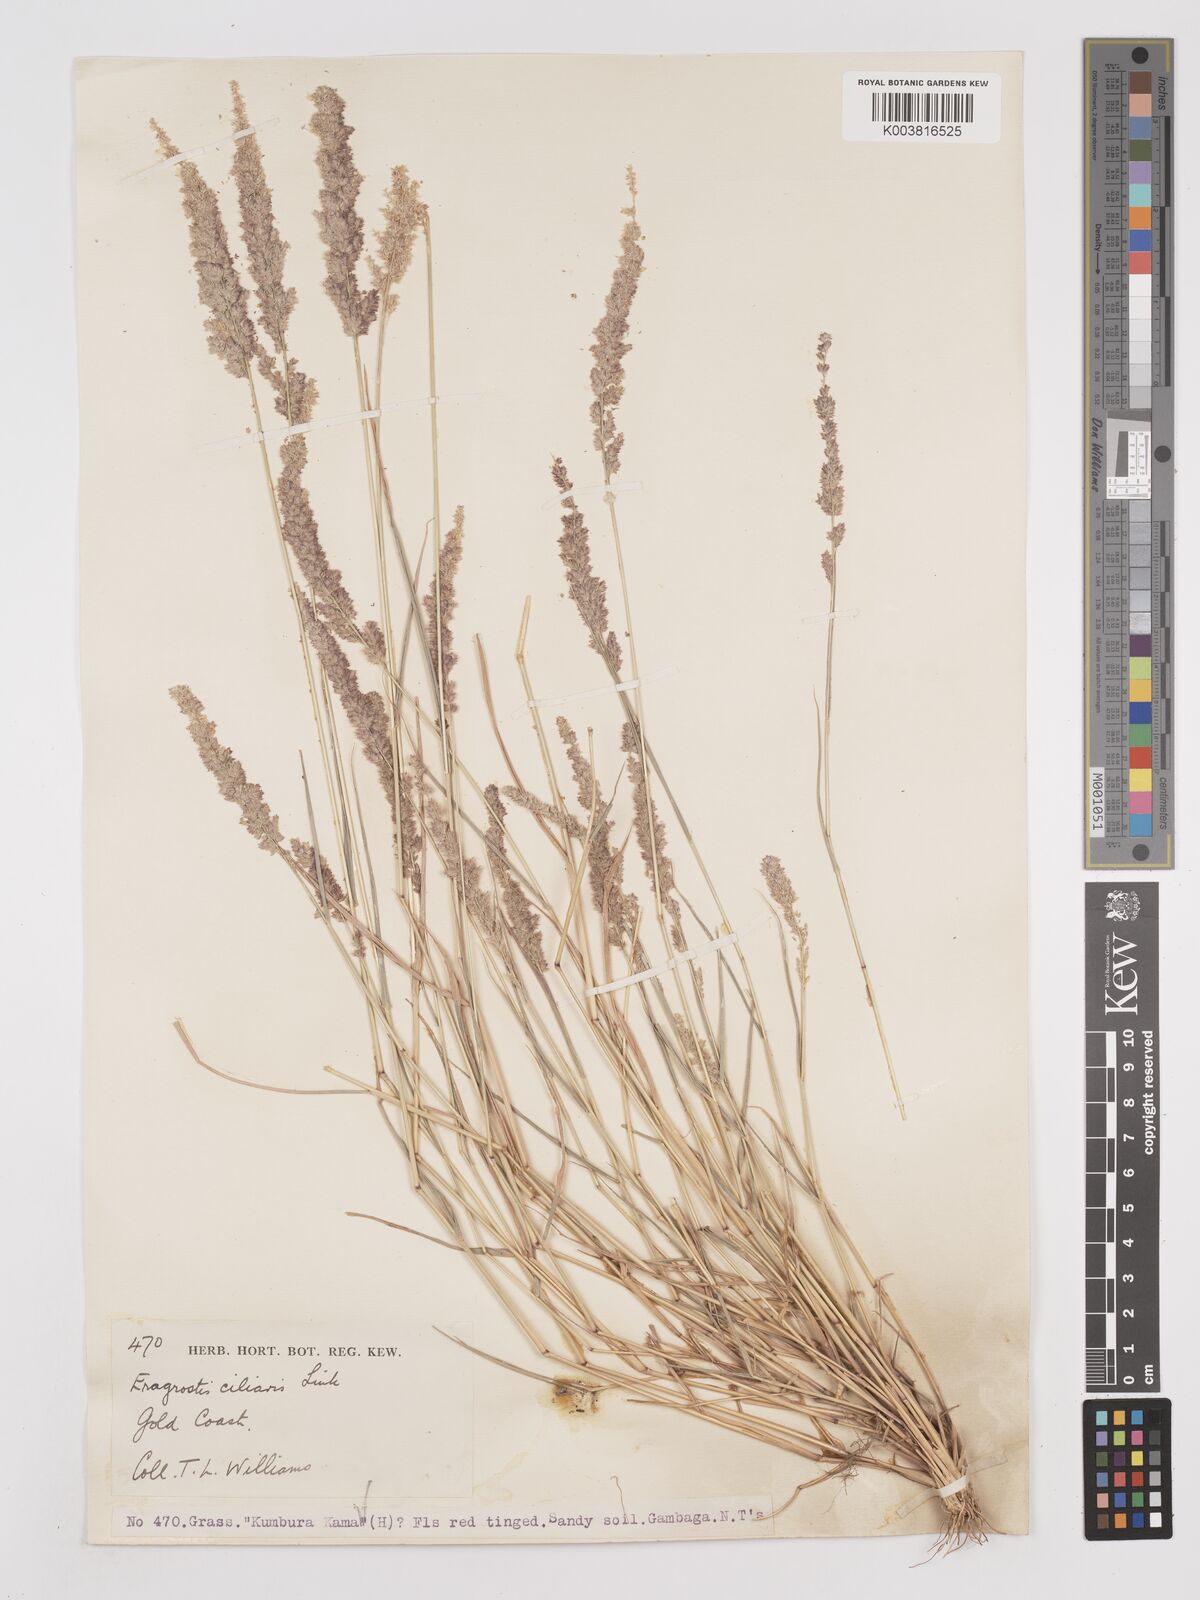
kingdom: Plantae
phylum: Tracheophyta
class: Liliopsida
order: Poales
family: Poaceae
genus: Eragrostis
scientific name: Eragrostis ciliaris
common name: Gophertail lovegrass
